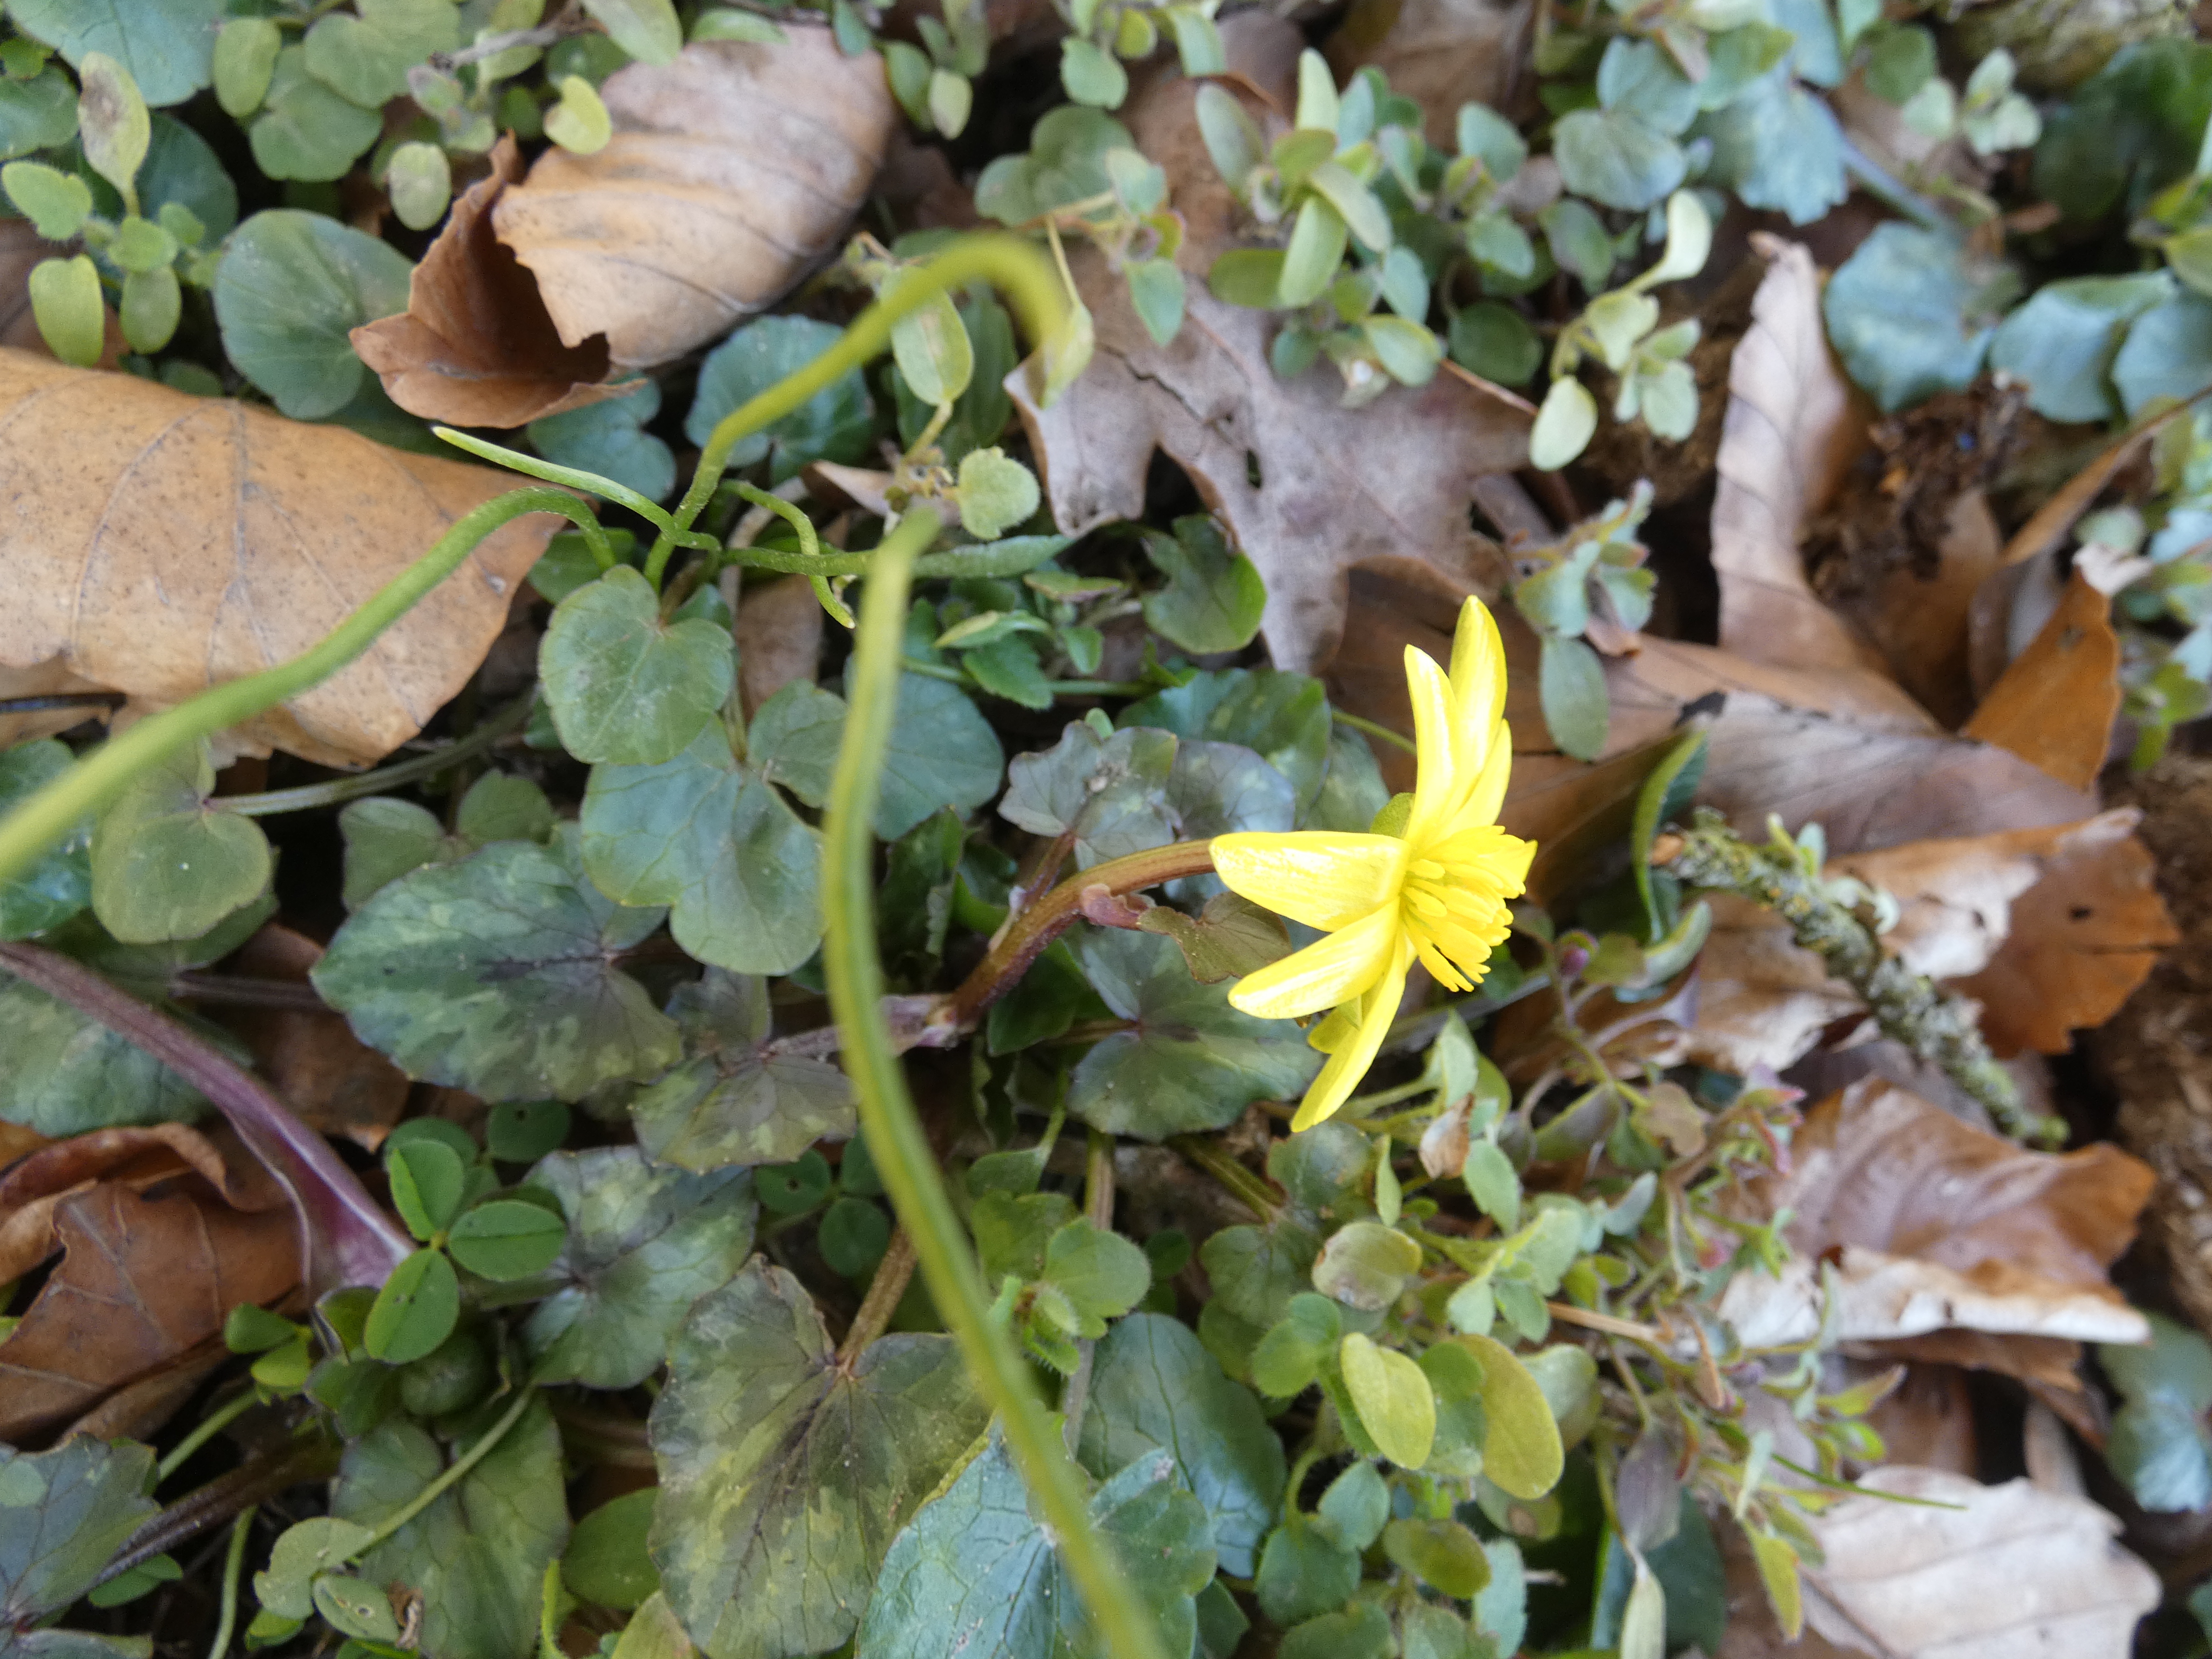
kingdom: Plantae
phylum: Tracheophyta
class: Magnoliopsida
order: Ranunculales
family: Ranunculaceae
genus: Ficaria
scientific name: Ficaria verna
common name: Vorterod
